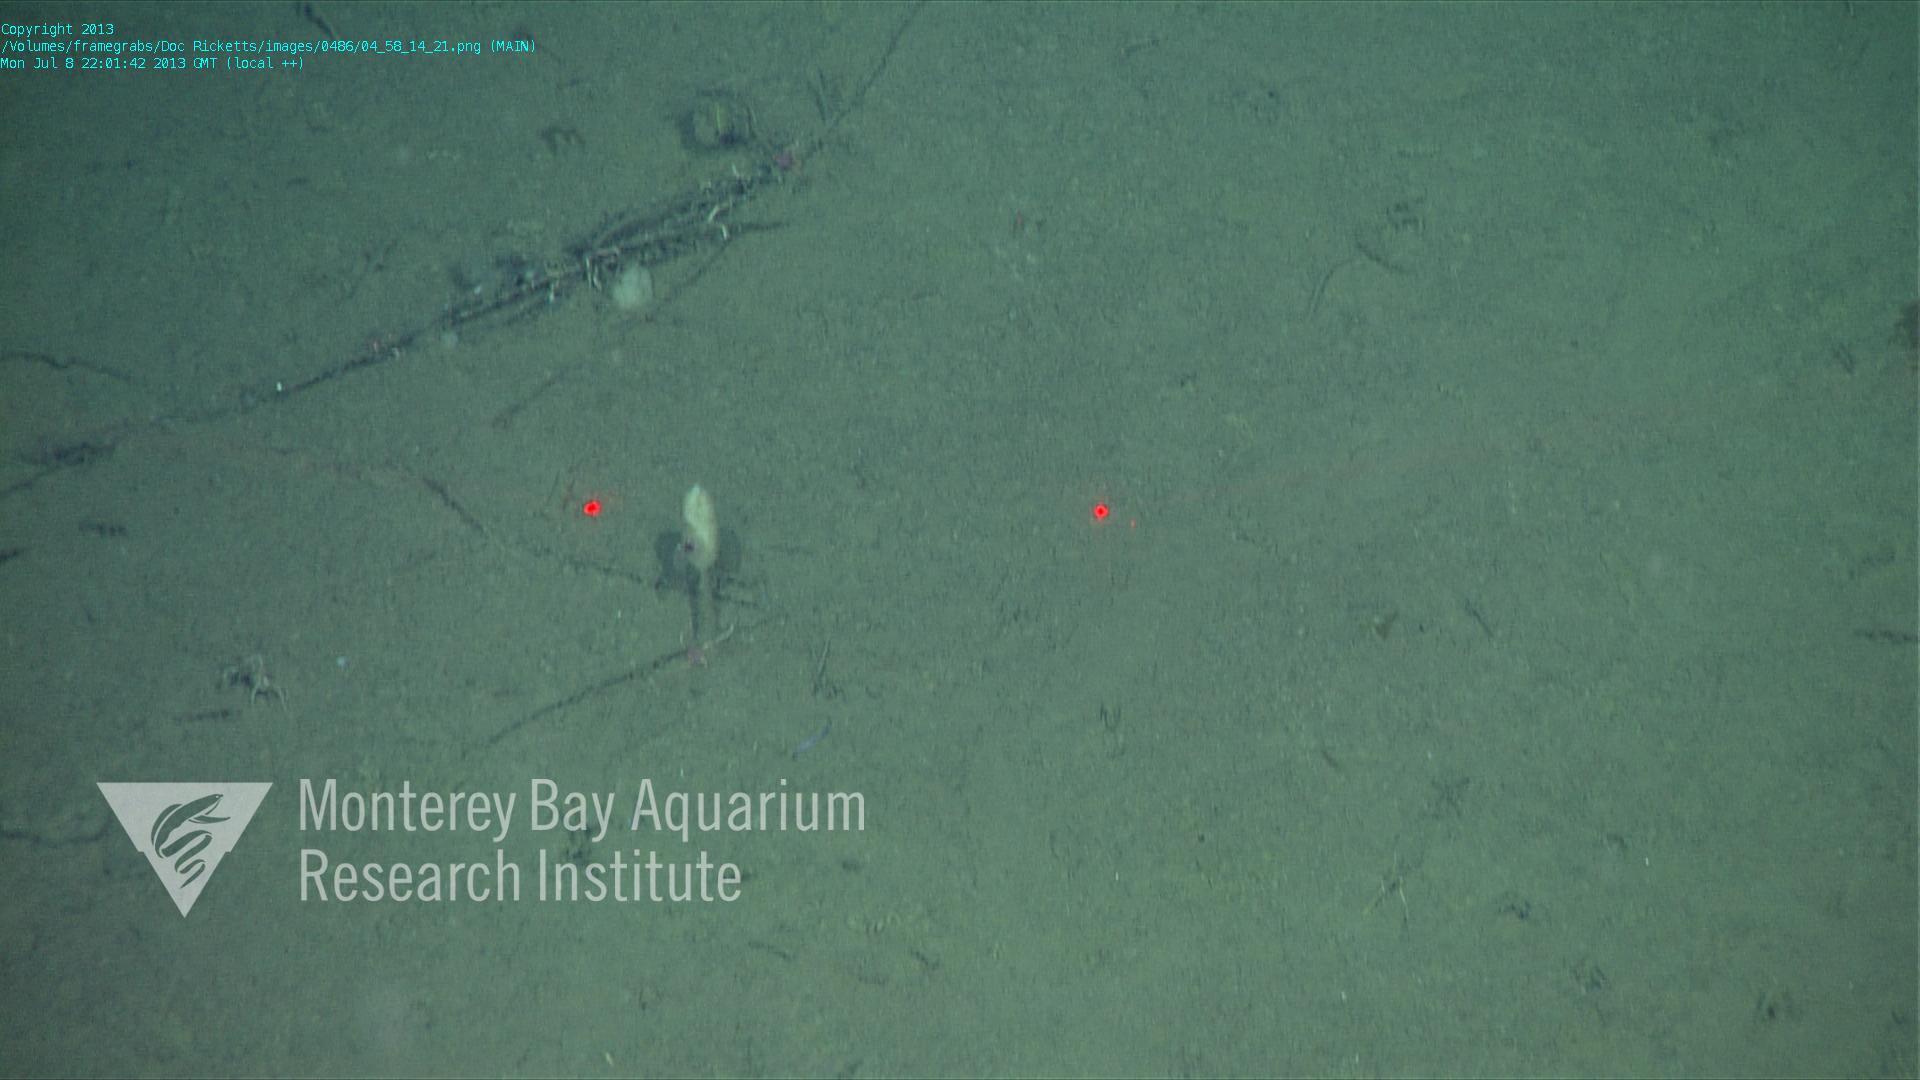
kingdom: Animalia
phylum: Porifera
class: Hexactinellida
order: Amphidiscosida
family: Hyalonematidae
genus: Hyalonema
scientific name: Hyalonema
